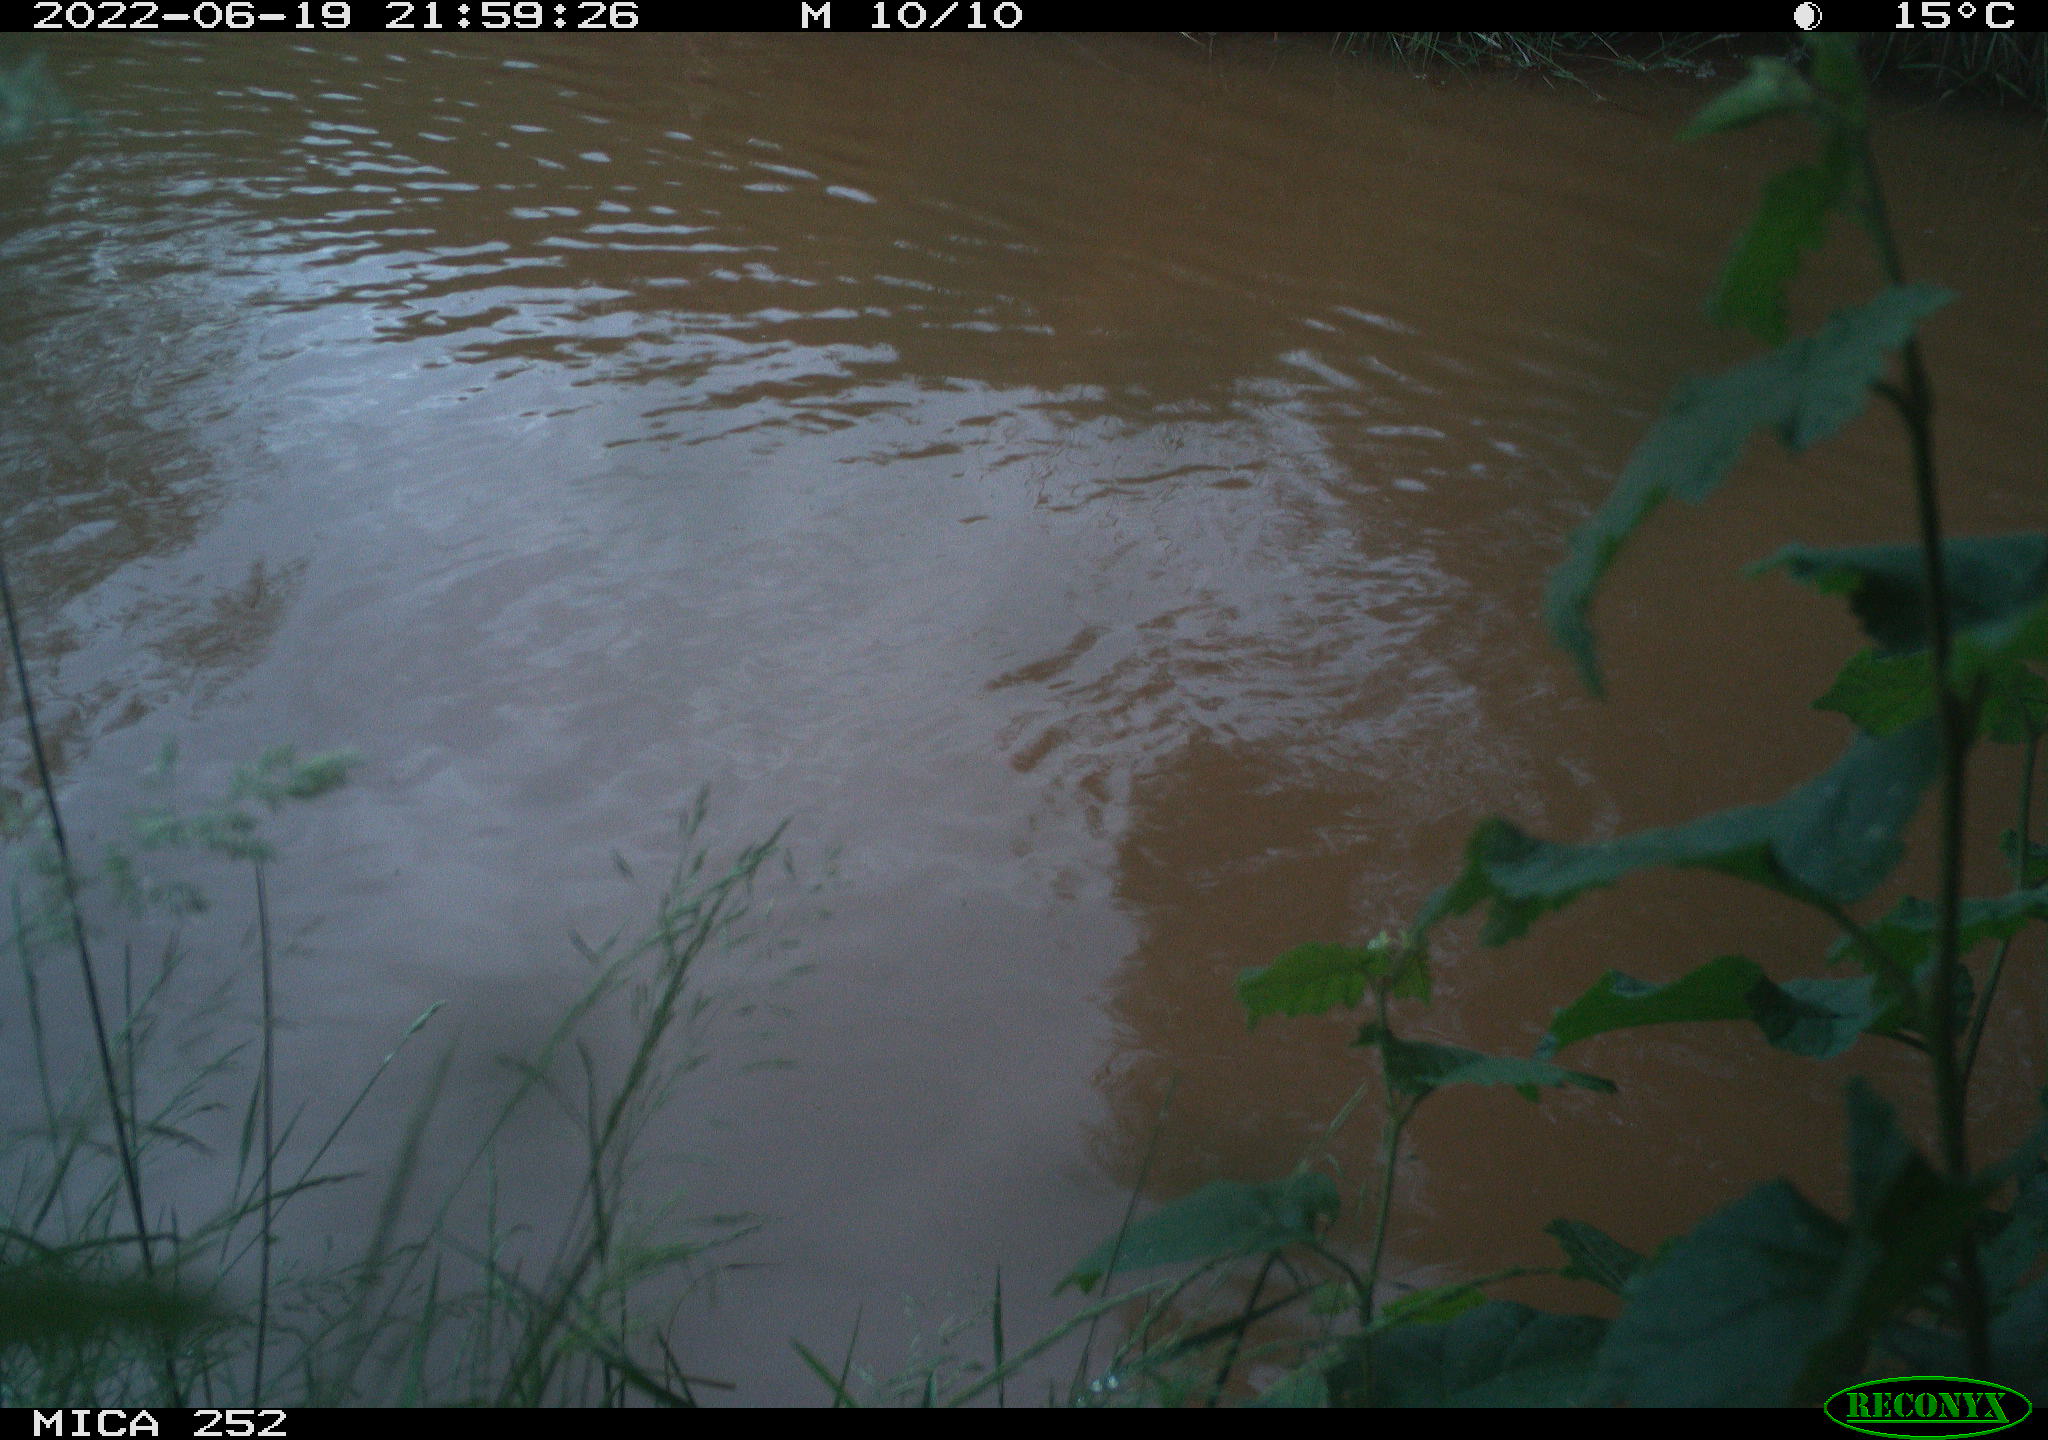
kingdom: Animalia
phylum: Chordata
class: Aves
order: Anseriformes
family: Anatidae
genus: Mareca
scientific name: Mareca strepera
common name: Gadwall
